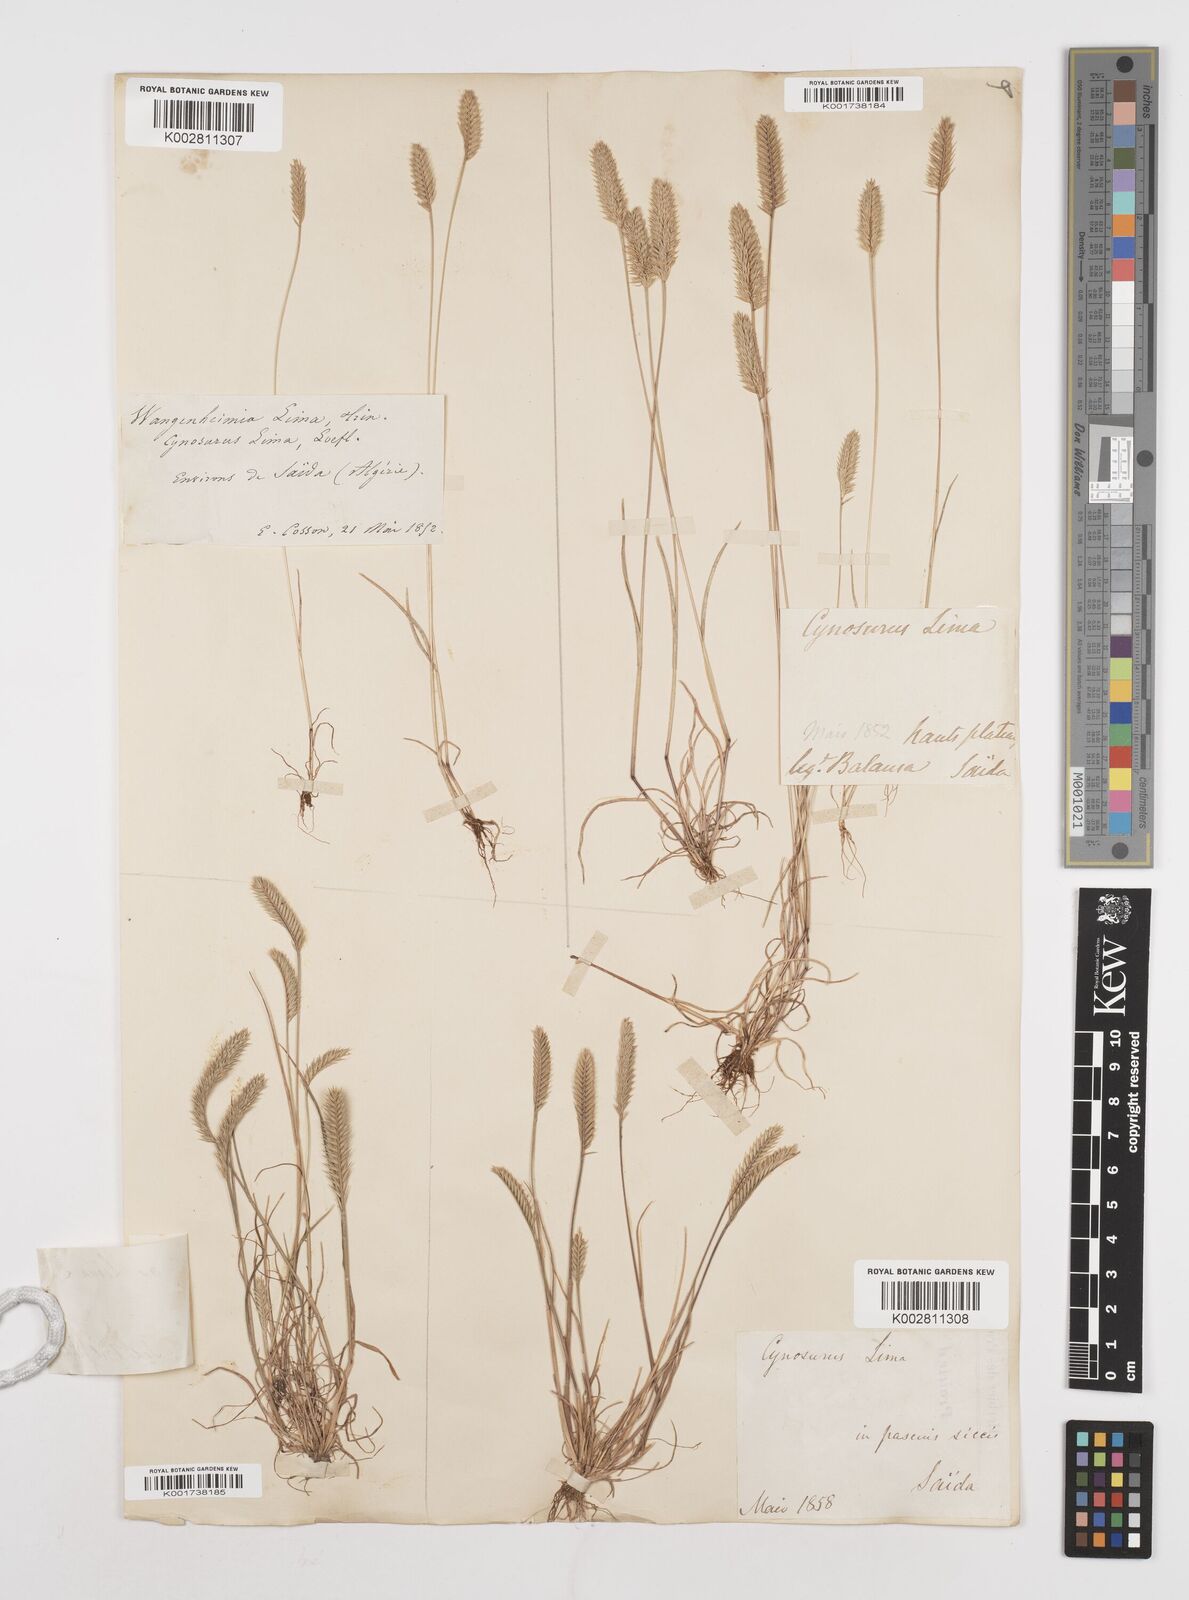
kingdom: Plantae
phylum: Tracheophyta
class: Liliopsida
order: Poales
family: Poaceae
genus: Wangenheimia
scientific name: Wangenheimia lima
